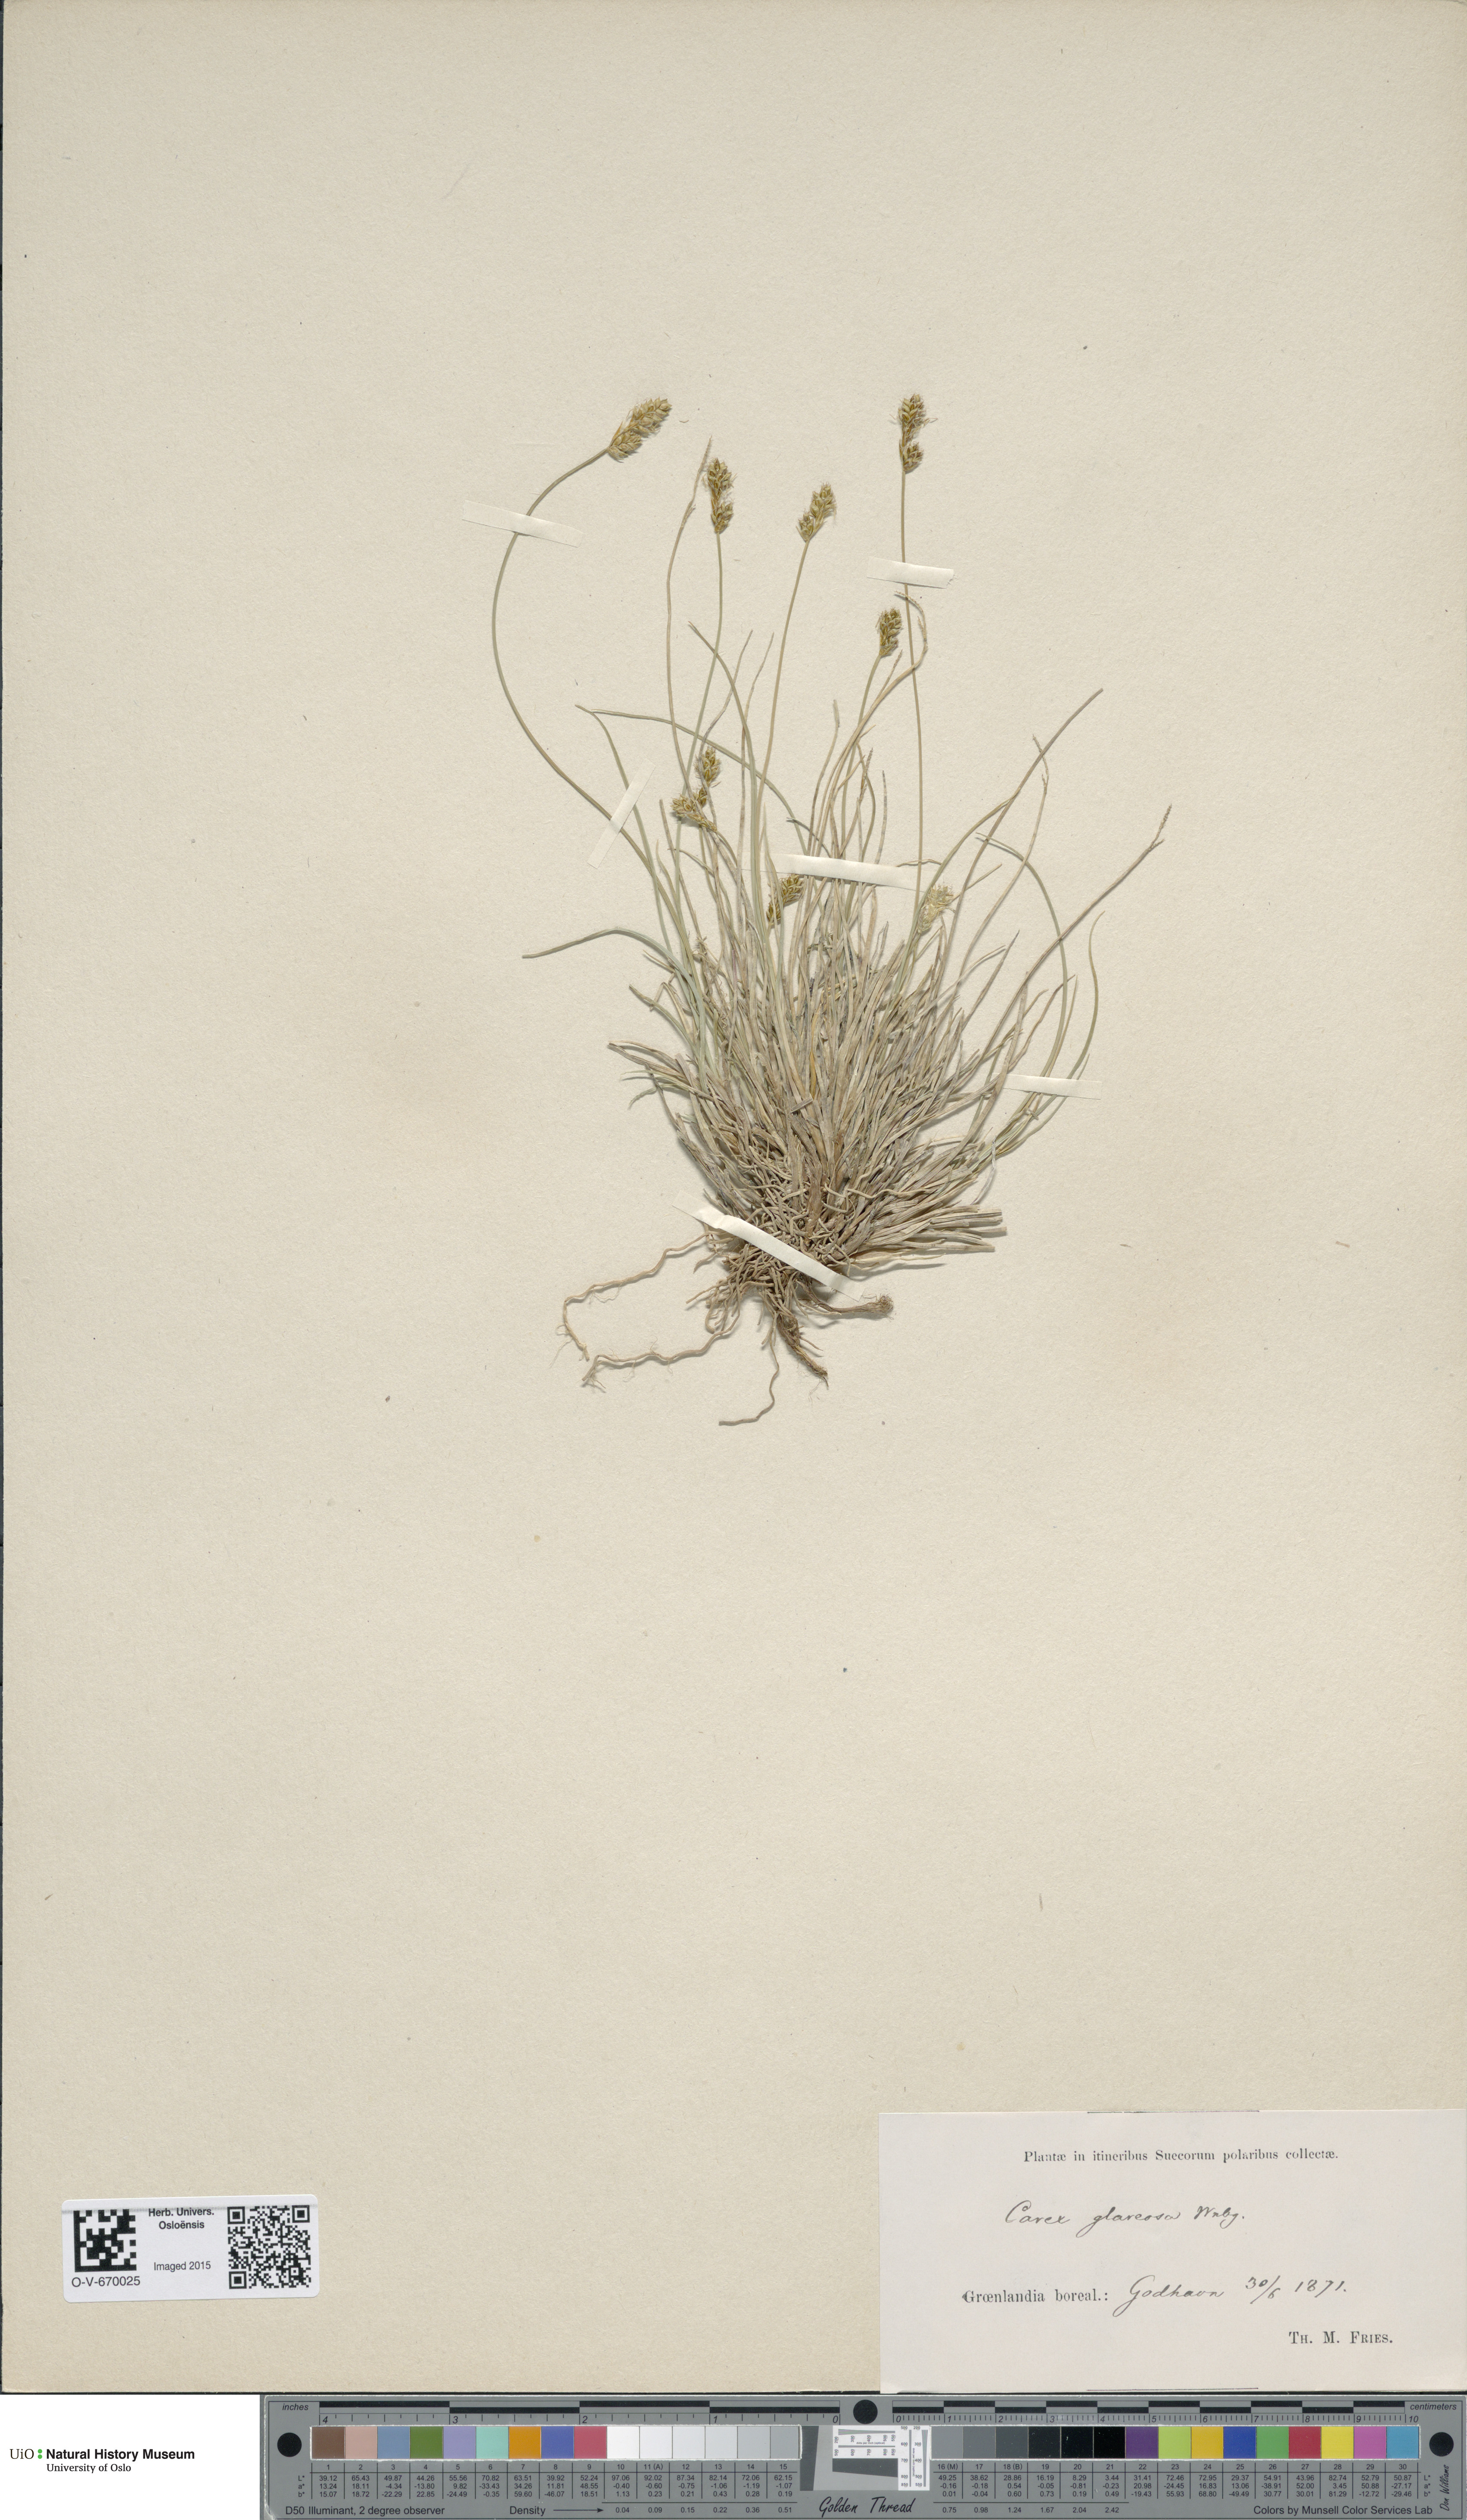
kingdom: Plantae
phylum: Tracheophyta
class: Liliopsida
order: Poales
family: Cyperaceae
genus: Carex
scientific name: Carex glareosa
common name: Clustered sedge
